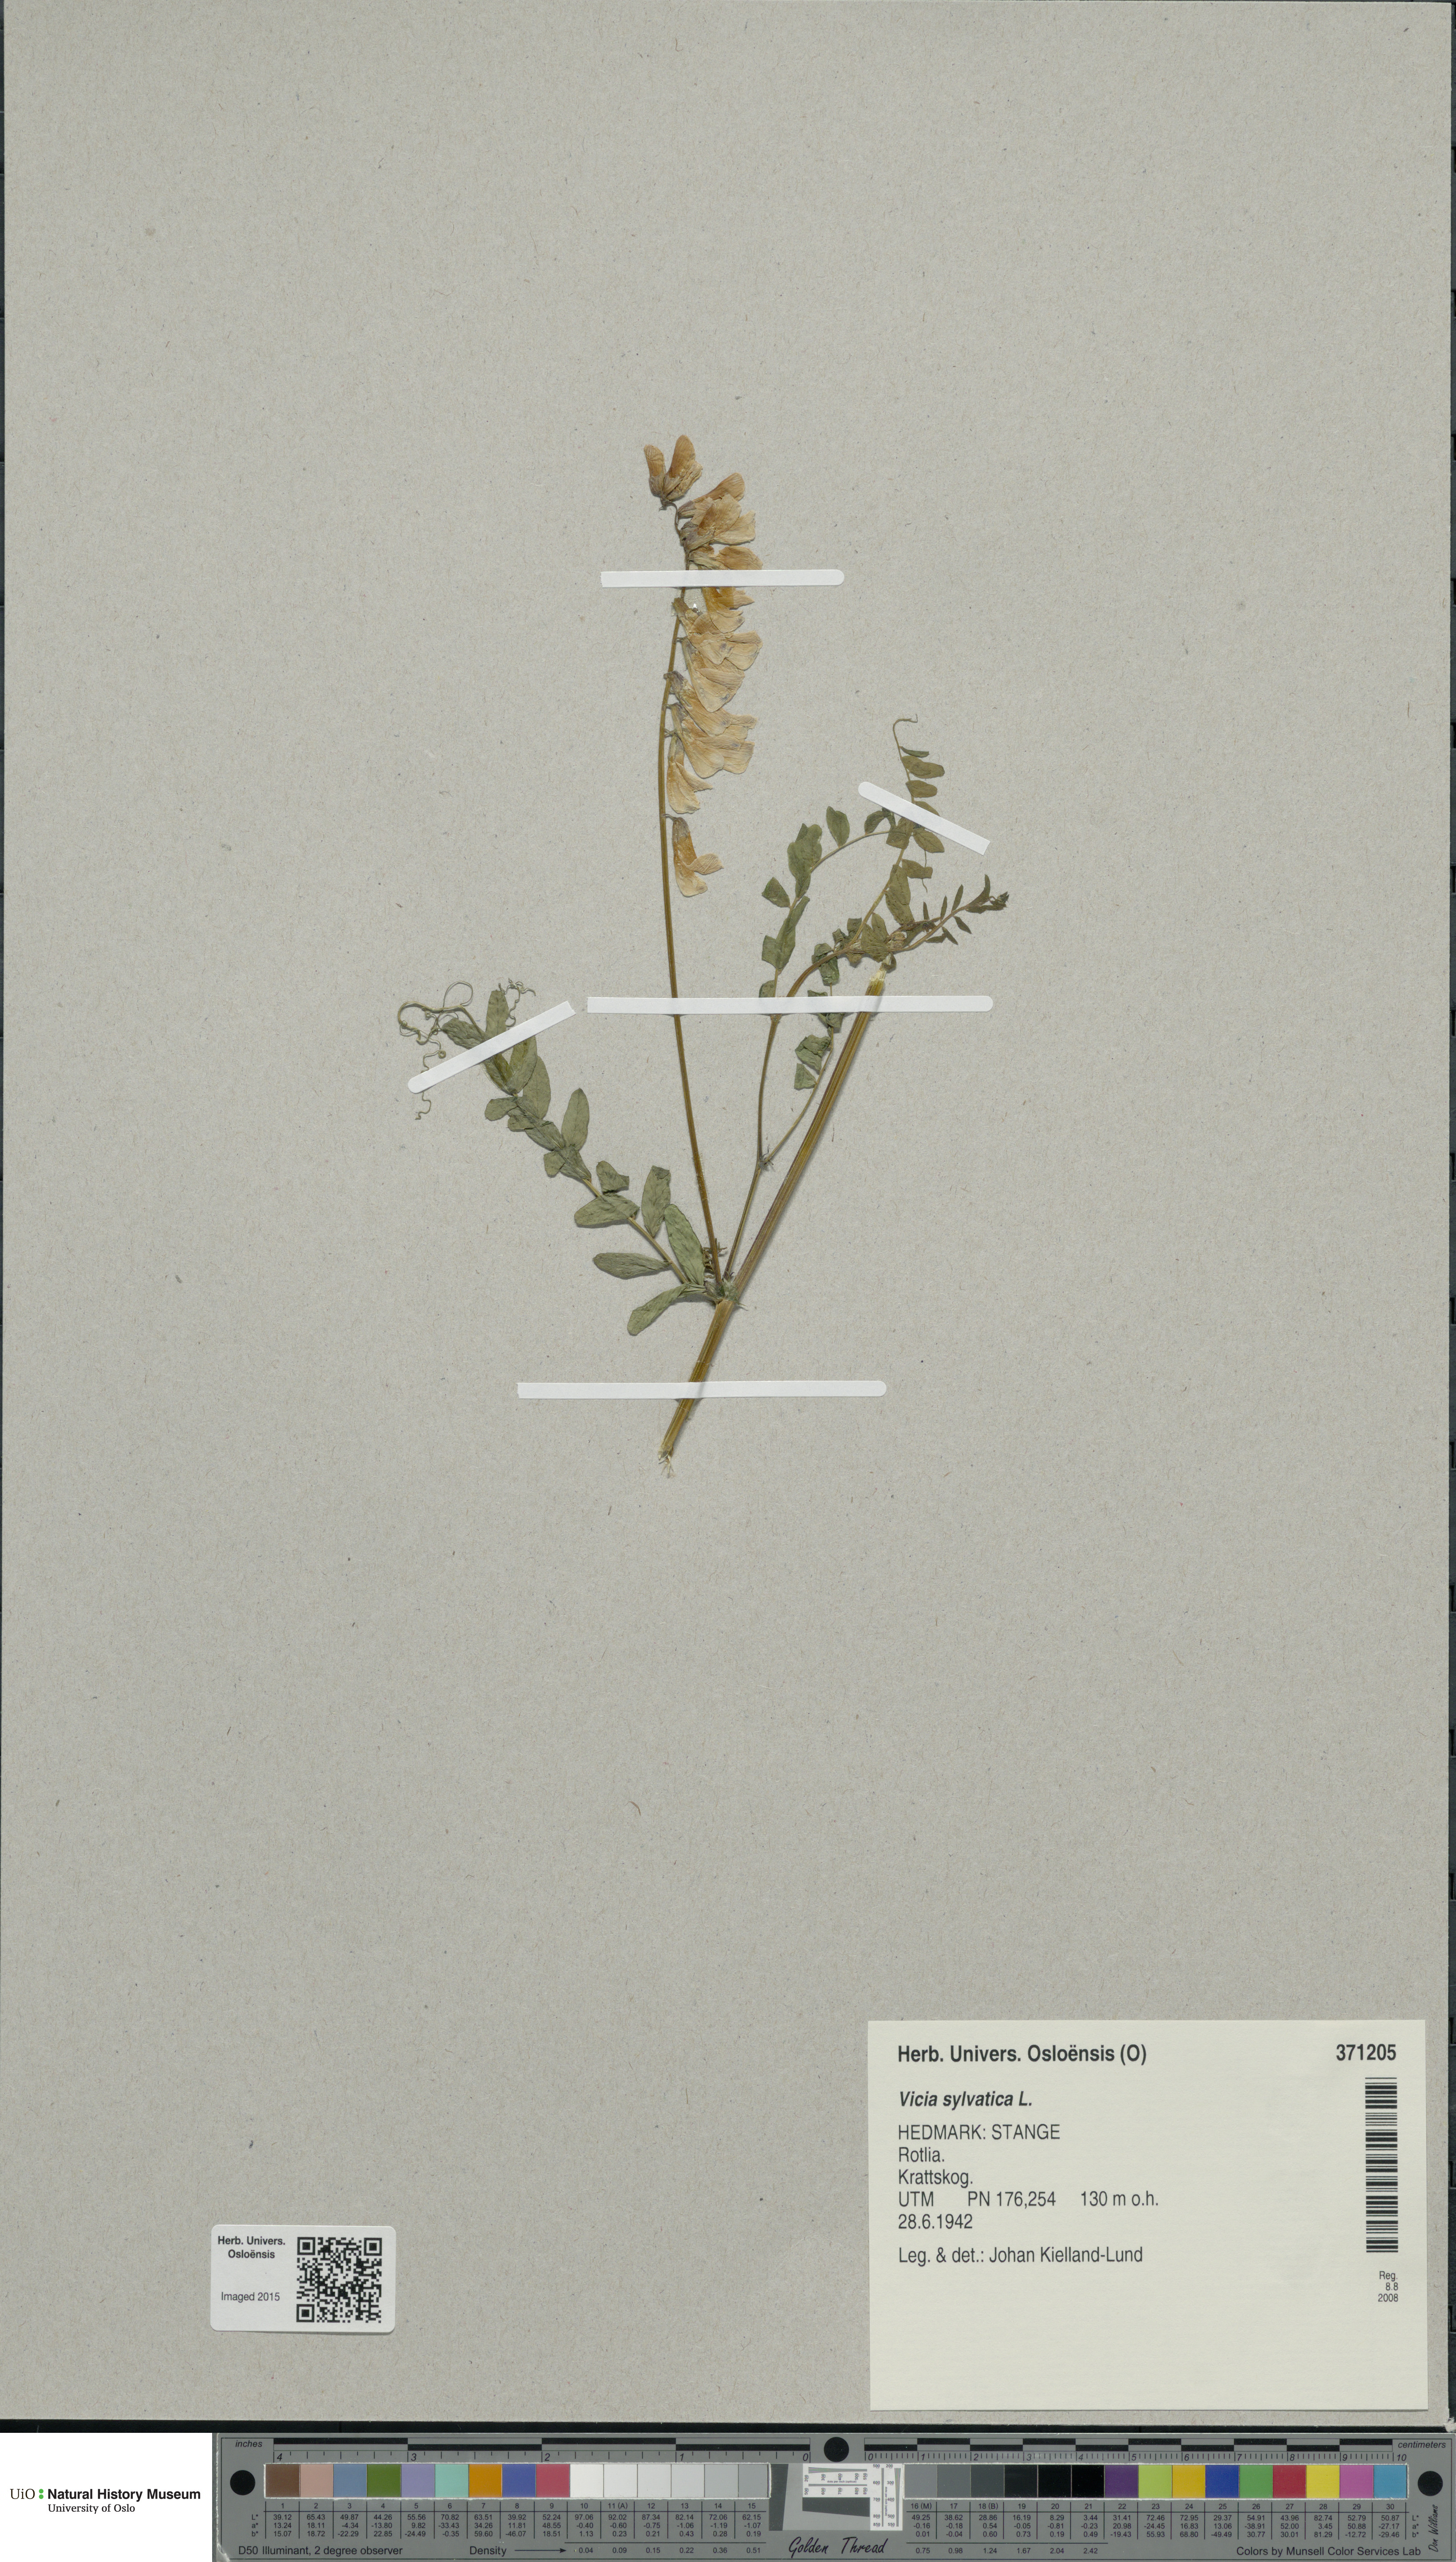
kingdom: Plantae
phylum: Tracheophyta
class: Magnoliopsida
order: Fabales
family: Fabaceae
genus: Vicia
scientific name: Vicia sylvatica
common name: Wood vetch
